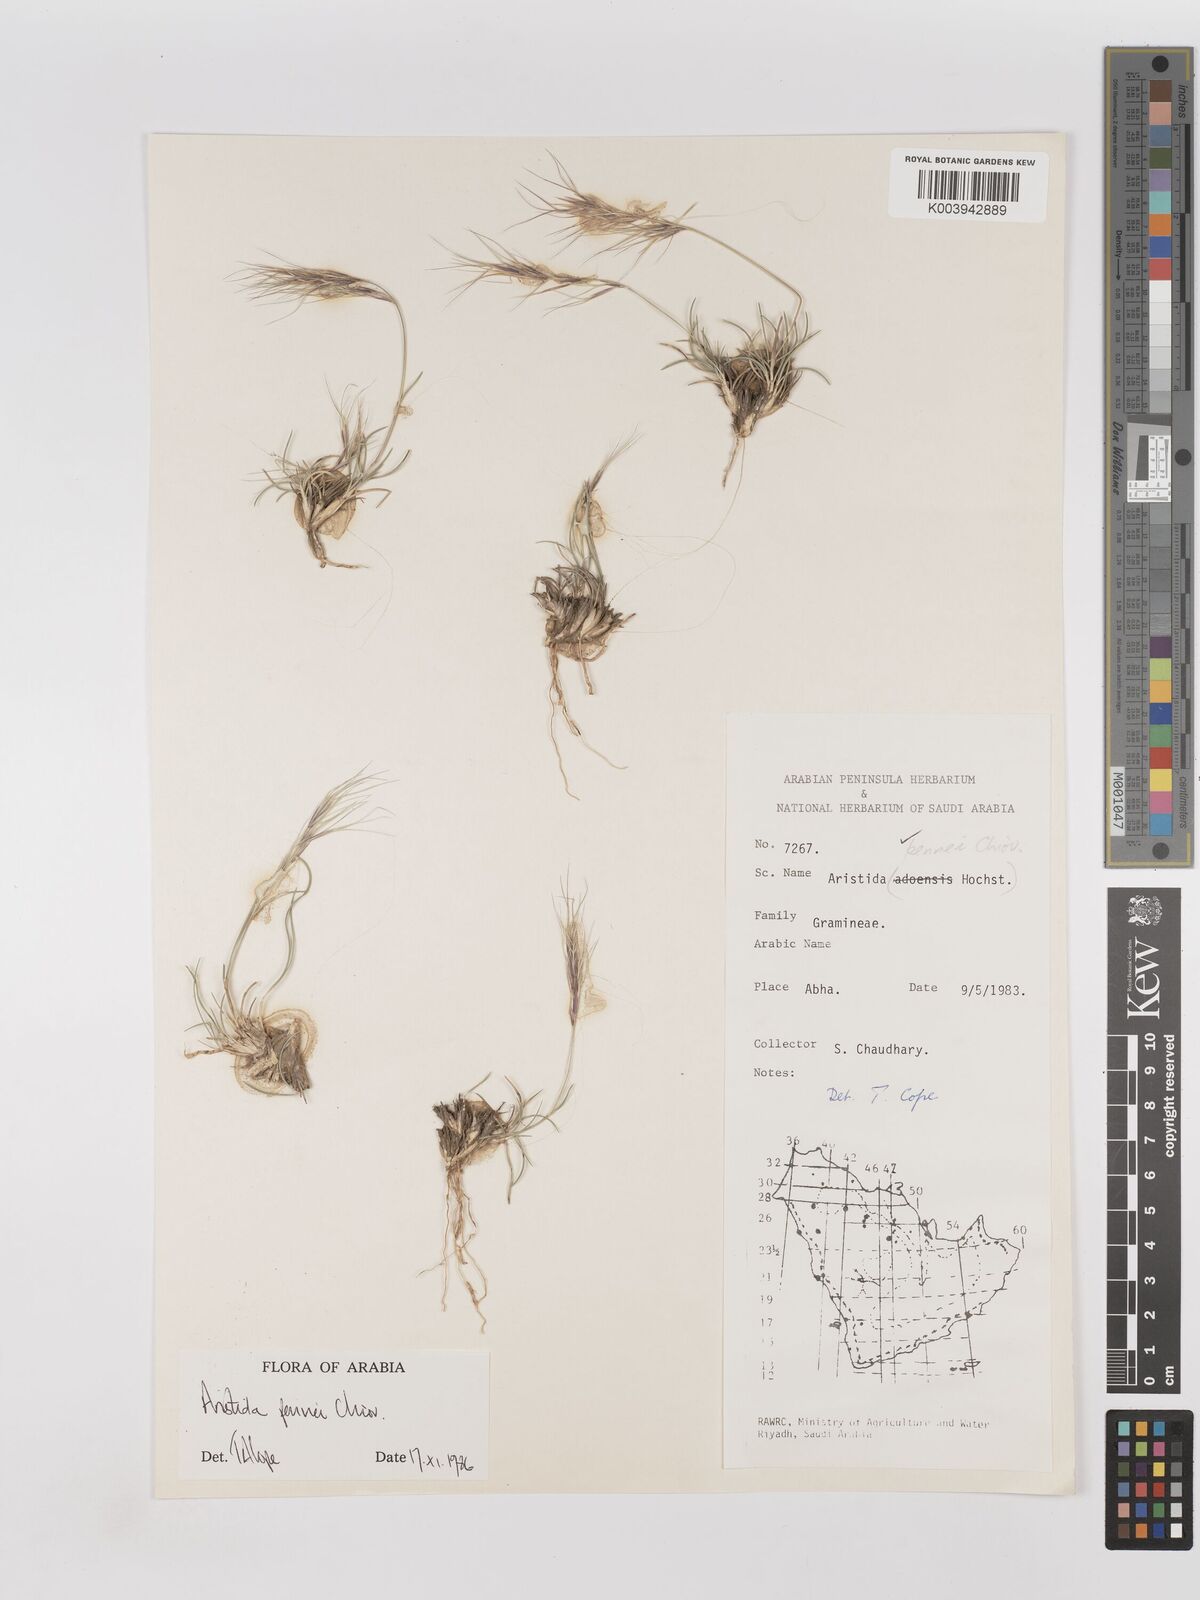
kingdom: Plantae
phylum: Tracheophyta
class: Liliopsida
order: Poales
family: Poaceae
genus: Aristida
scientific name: Aristida pennei
